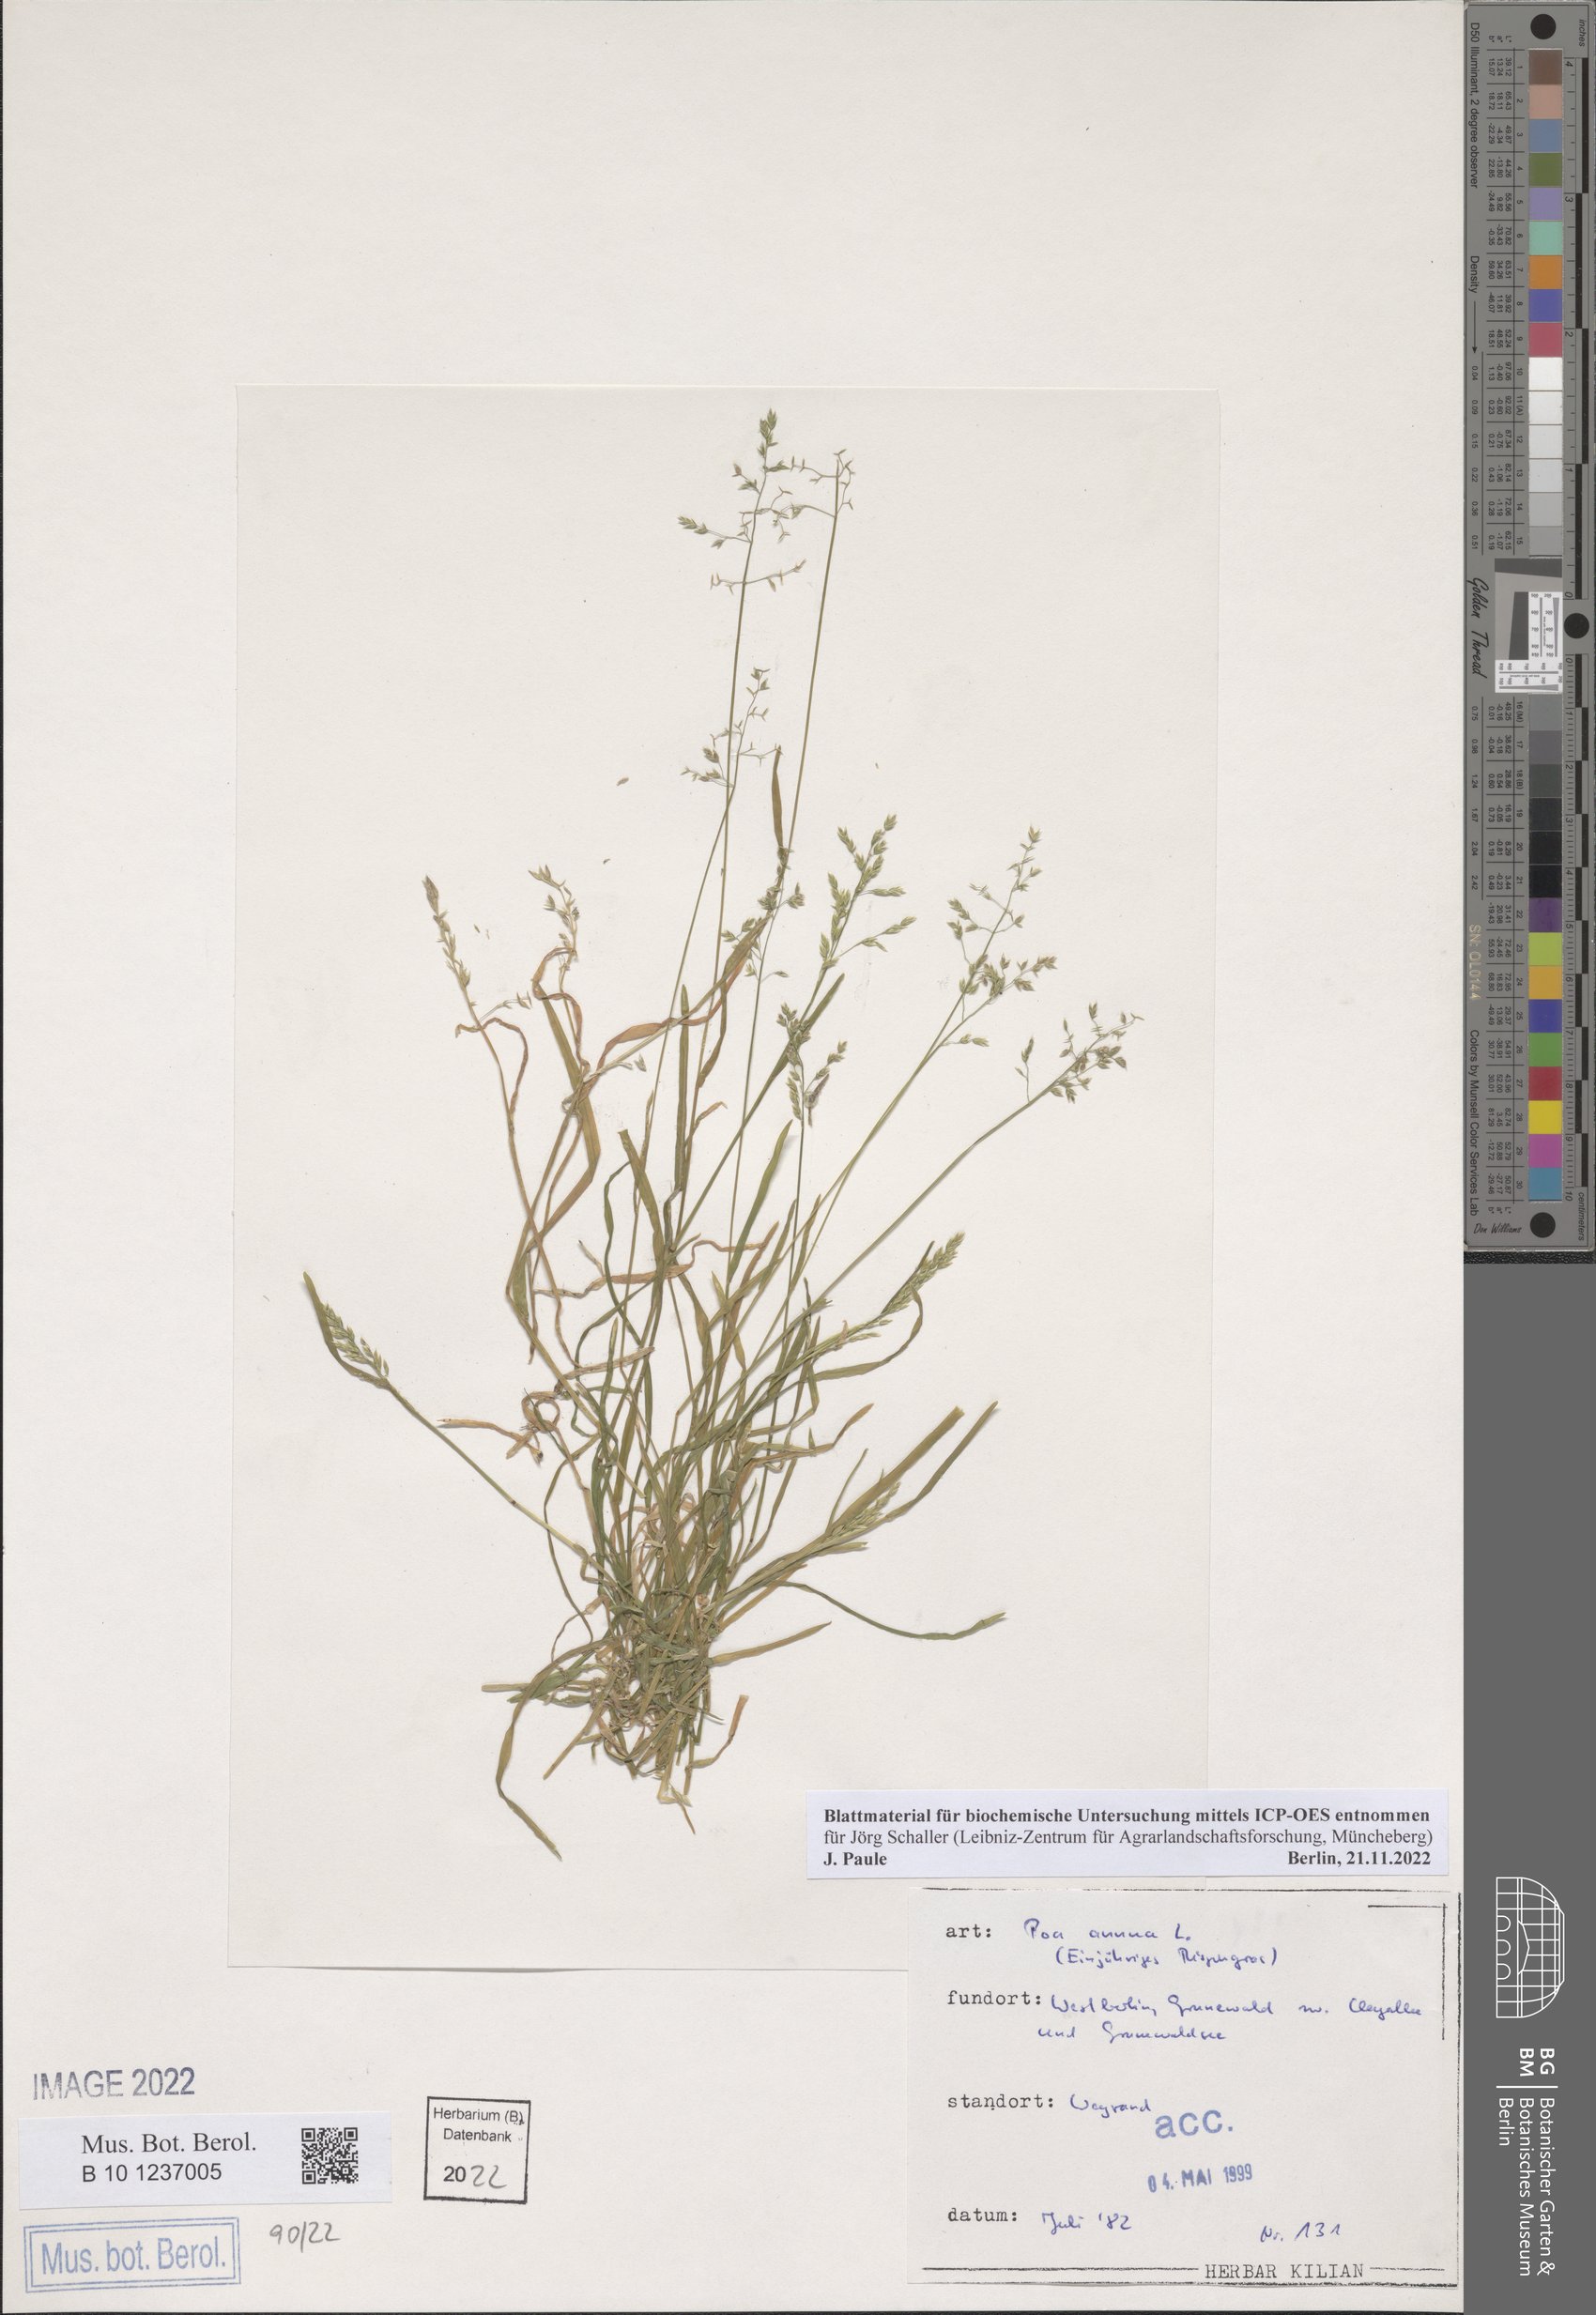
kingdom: Plantae
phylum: Tracheophyta
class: Liliopsida
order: Poales
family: Poaceae
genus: Poa
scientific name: Poa annua
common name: Annual bluegrass
